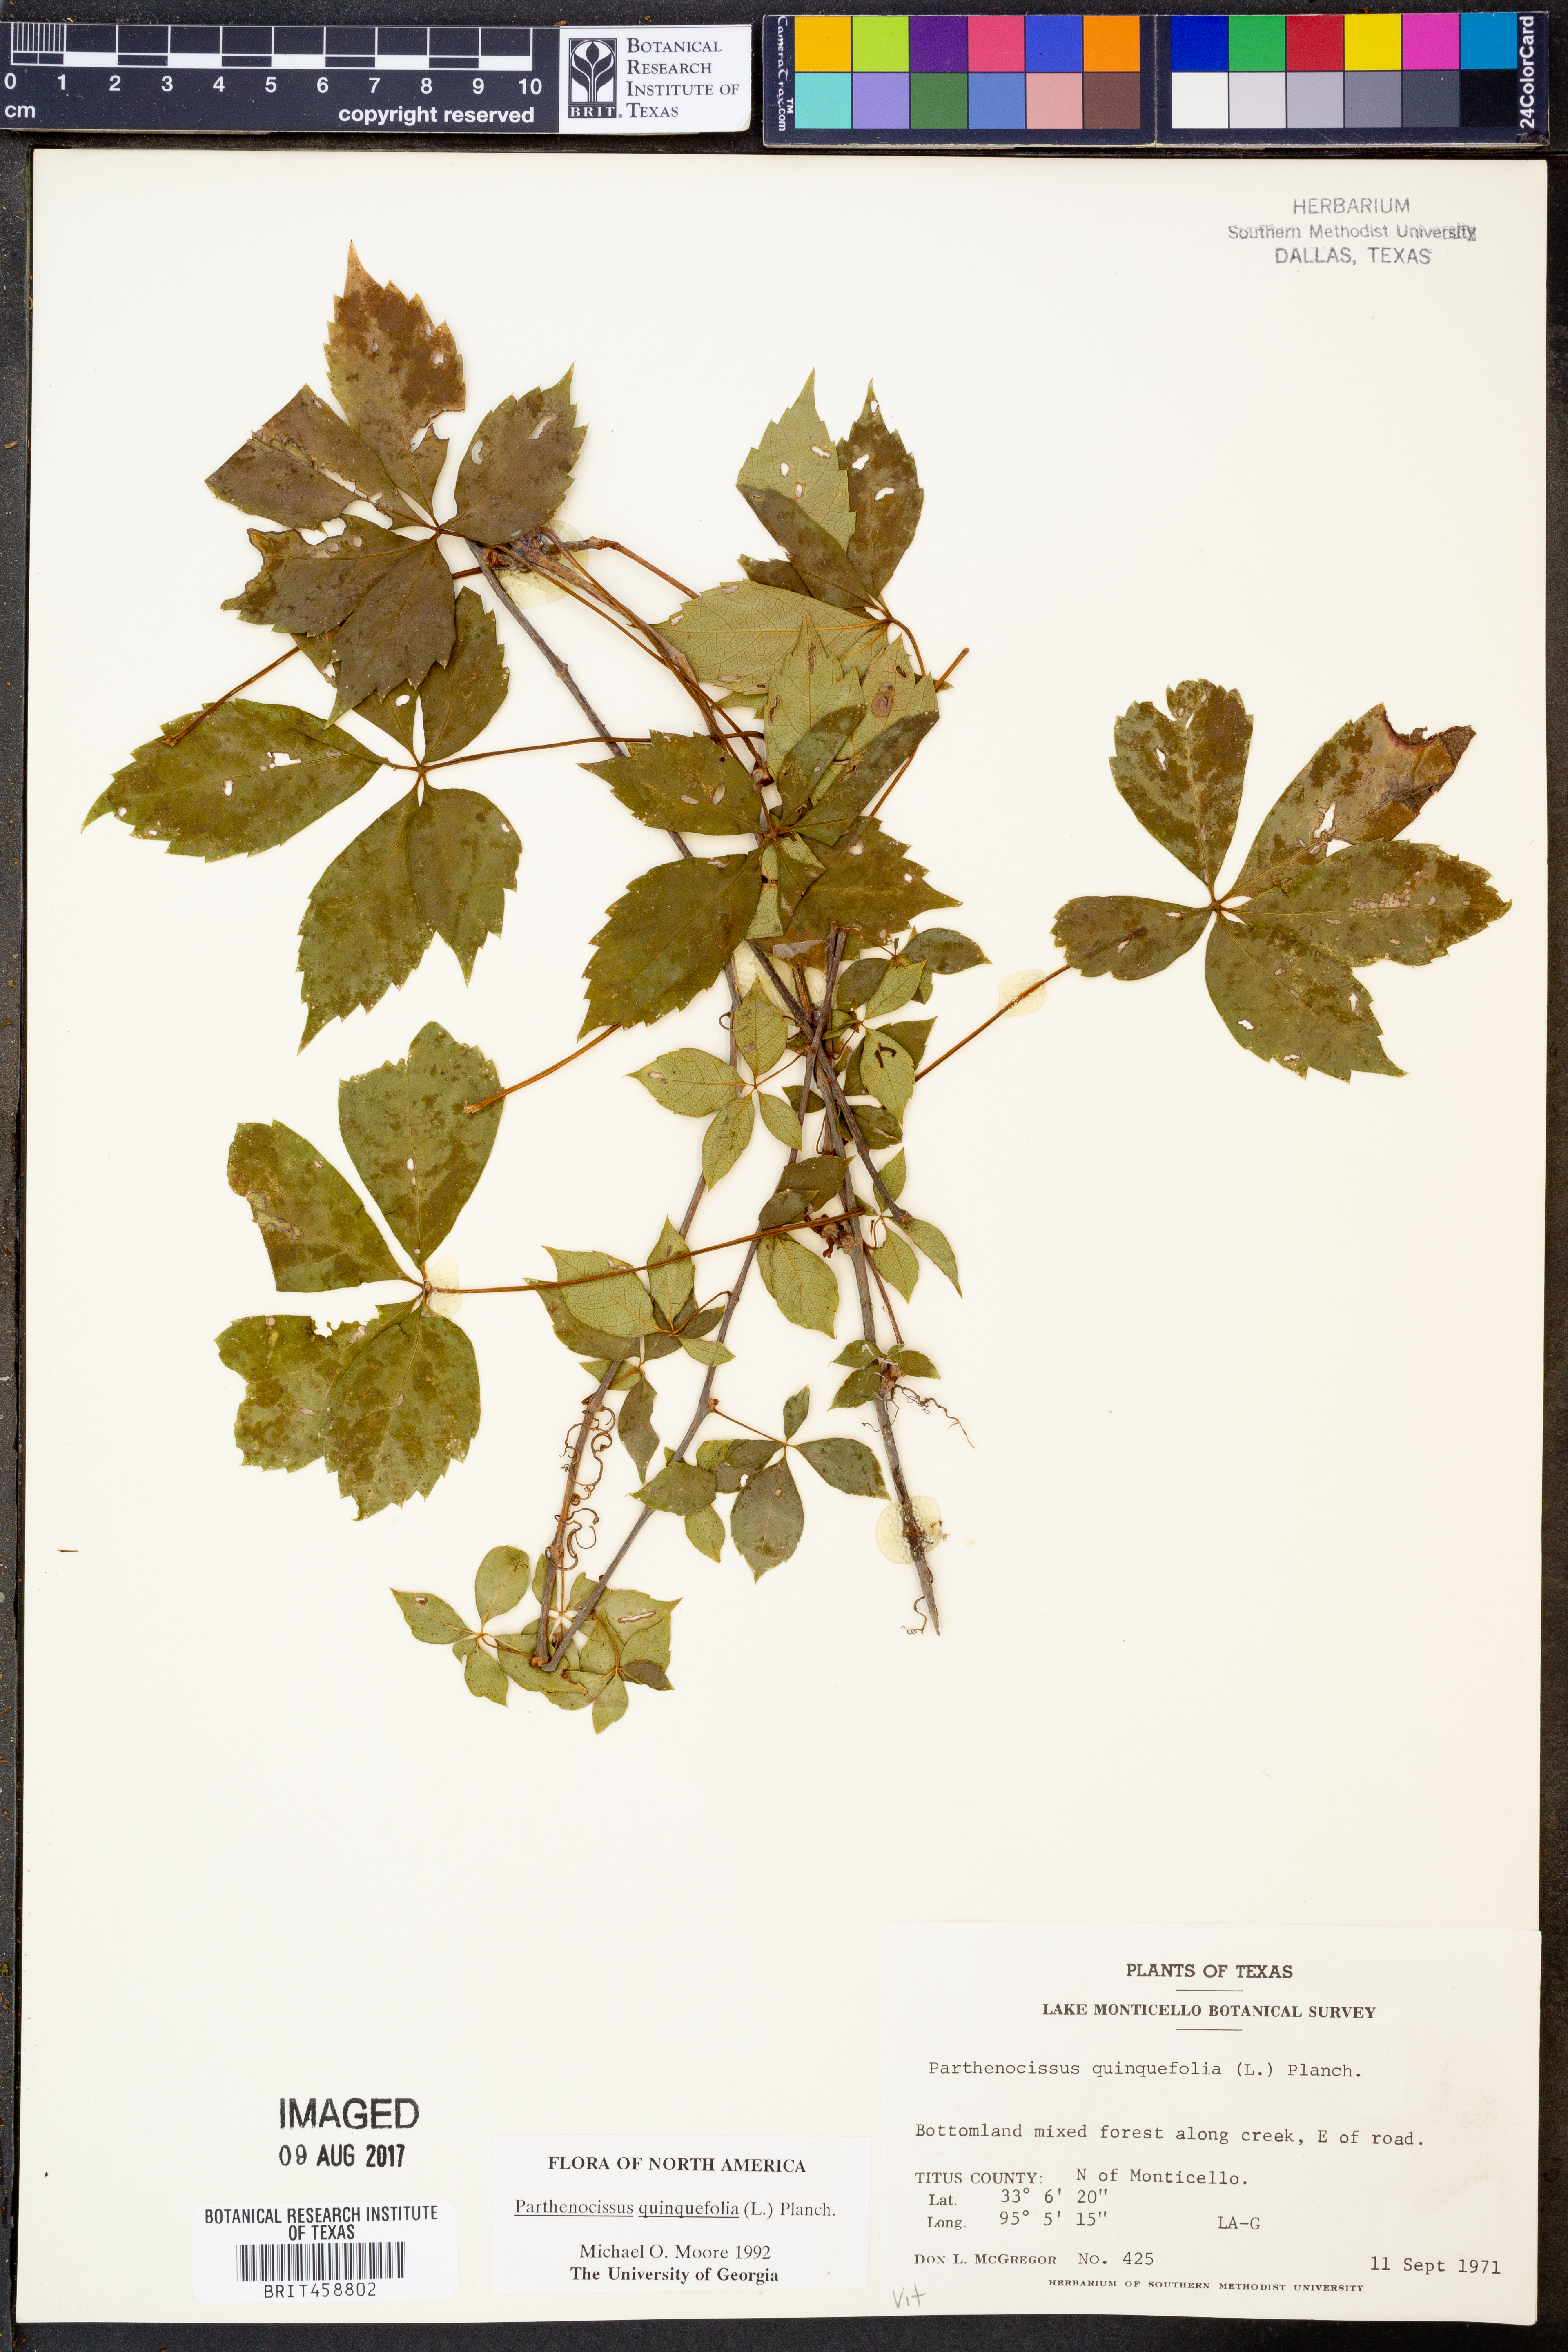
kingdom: Plantae
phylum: Tracheophyta
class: Magnoliopsida
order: Vitales
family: Vitaceae
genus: Parthenocissus
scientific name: Parthenocissus quinquefolia
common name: Virginia-creeper
